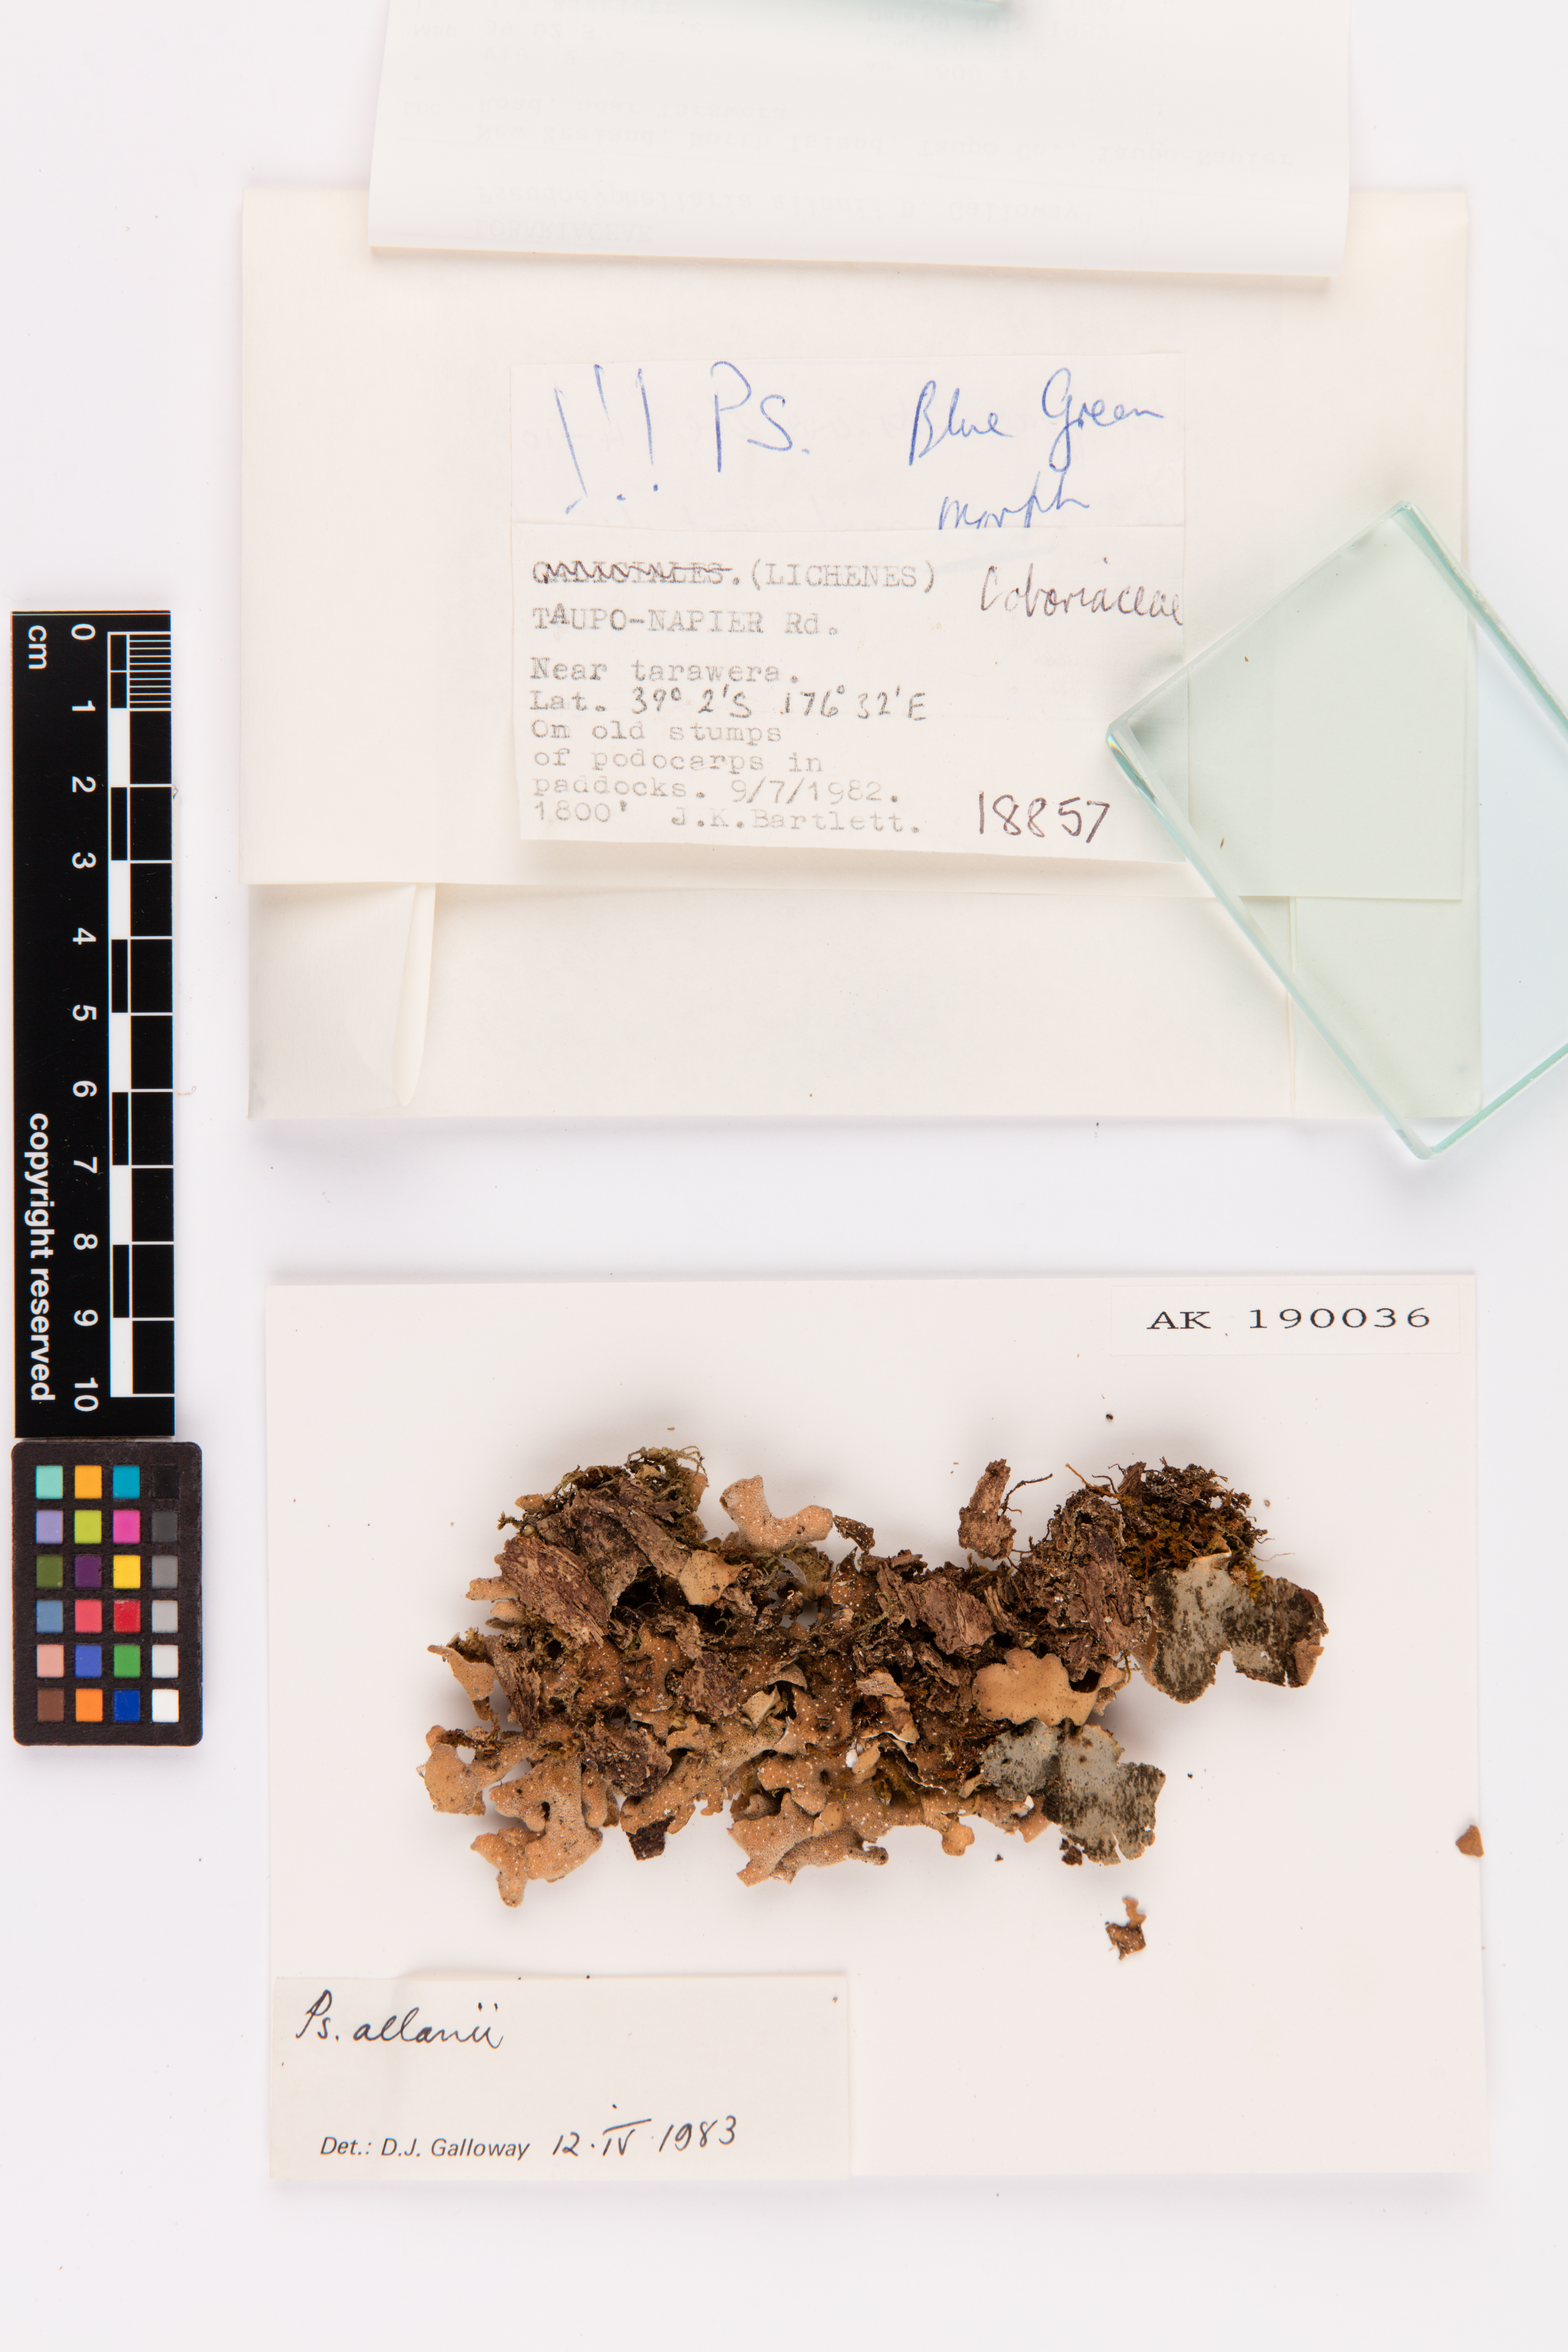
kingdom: Fungi
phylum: Ascomycota
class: Lecanoromycetes
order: Peltigerales
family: Lobariaceae
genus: Pseudocyphellaria
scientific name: Pseudocyphellaria allanii
